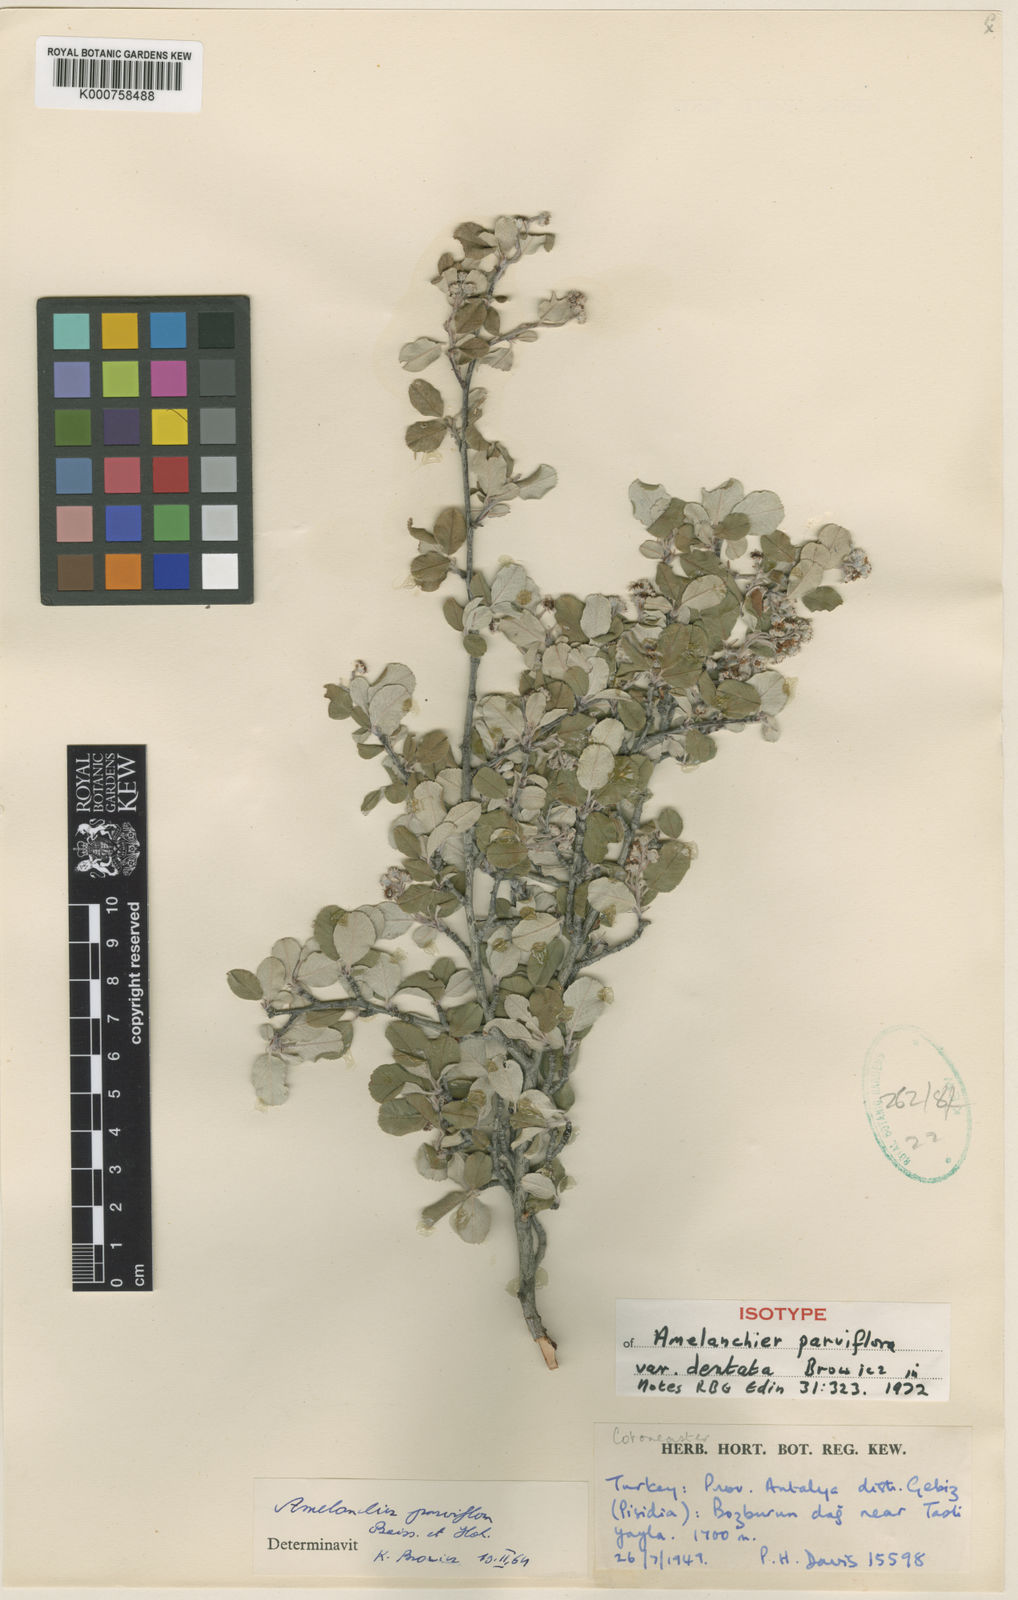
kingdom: Plantae
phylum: Tracheophyta
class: Magnoliopsida
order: Rosales
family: Rosaceae
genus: Amelanchier
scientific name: Amelanchier parviflora
